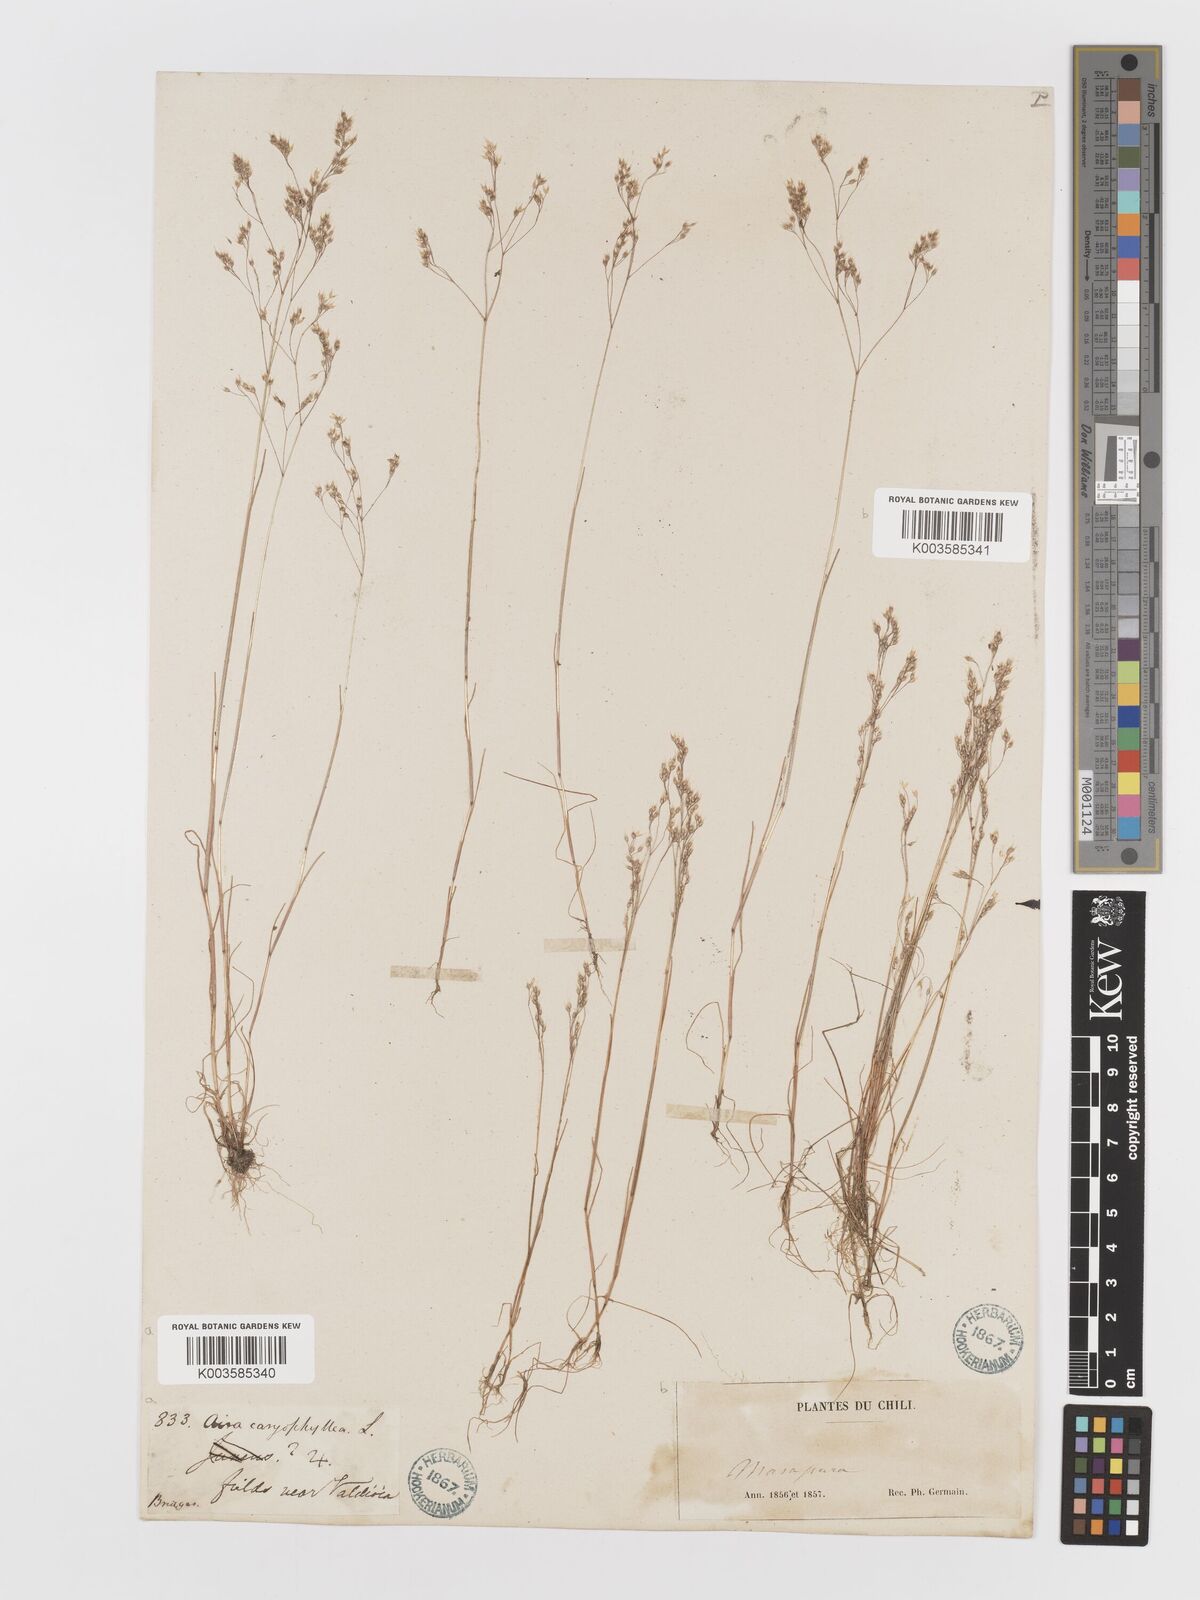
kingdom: Plantae
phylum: Tracheophyta
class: Liliopsida
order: Poales
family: Poaceae
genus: Aira
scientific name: Aira caryophyllea
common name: Silver hairgrass
